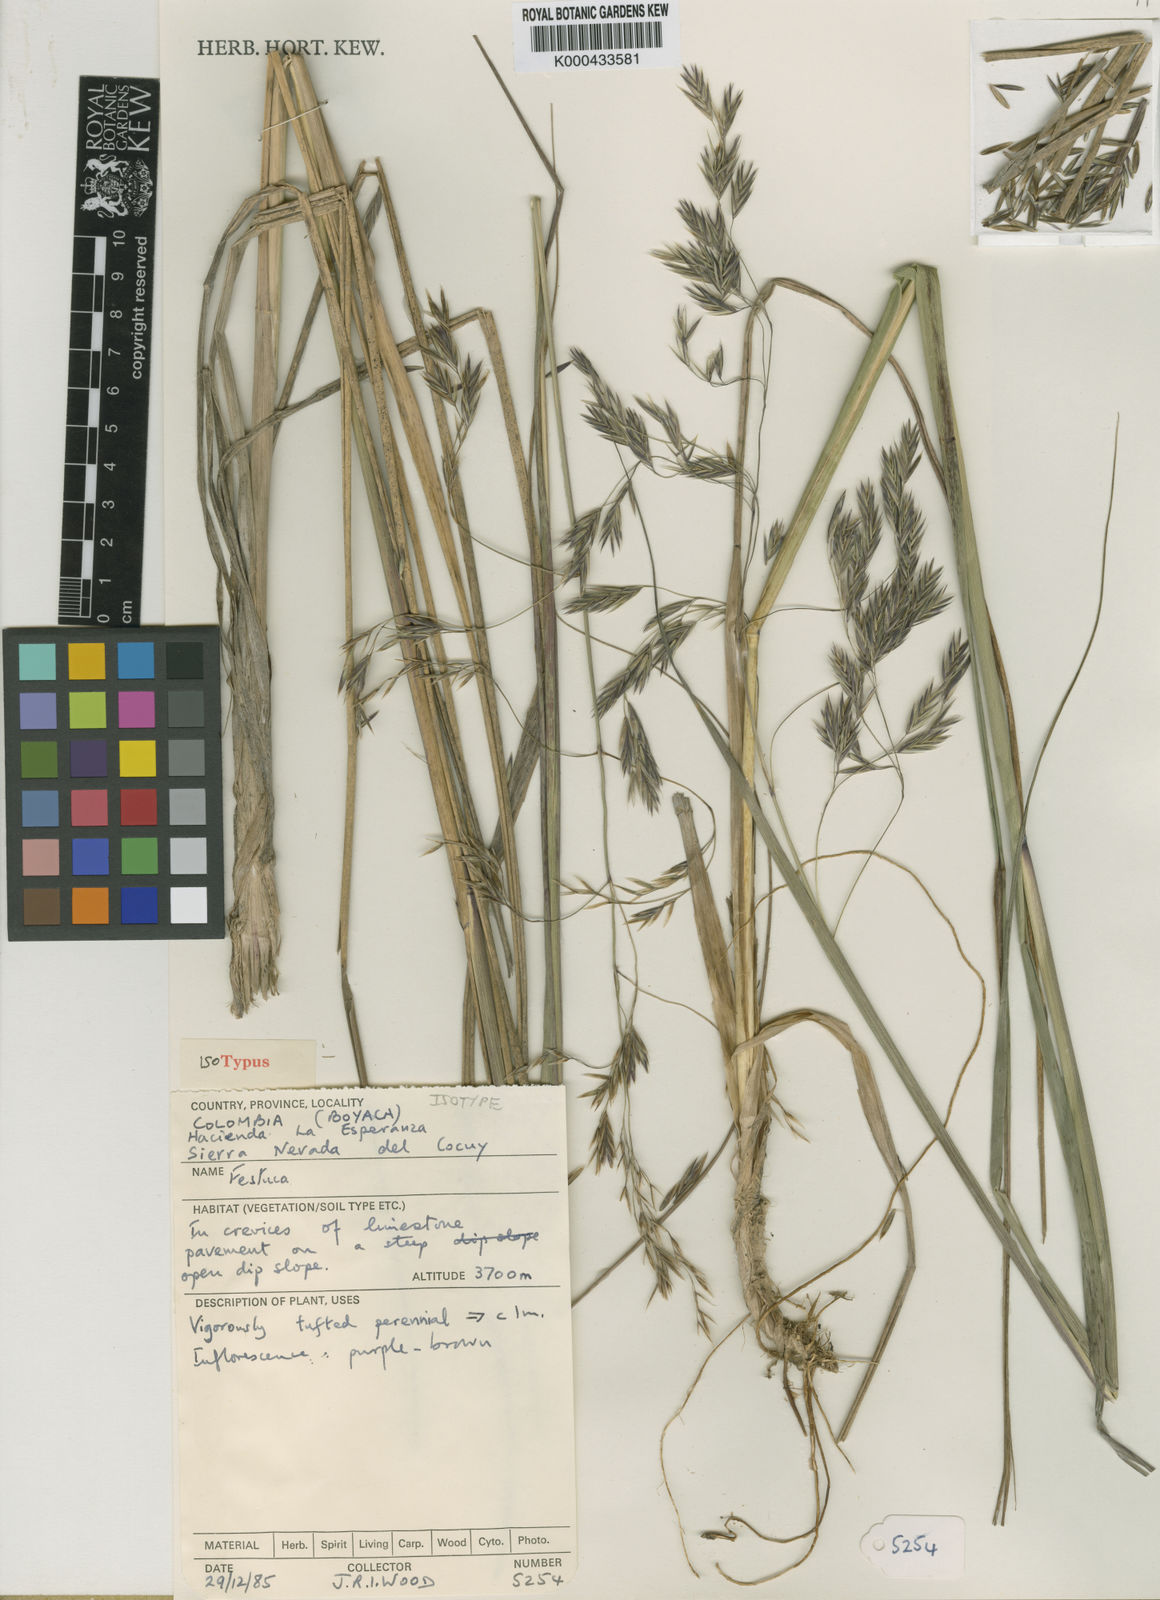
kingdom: Plantae
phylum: Tracheophyta
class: Liliopsida
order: Poales
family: Poaceae
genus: Festuca
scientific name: Festuca
